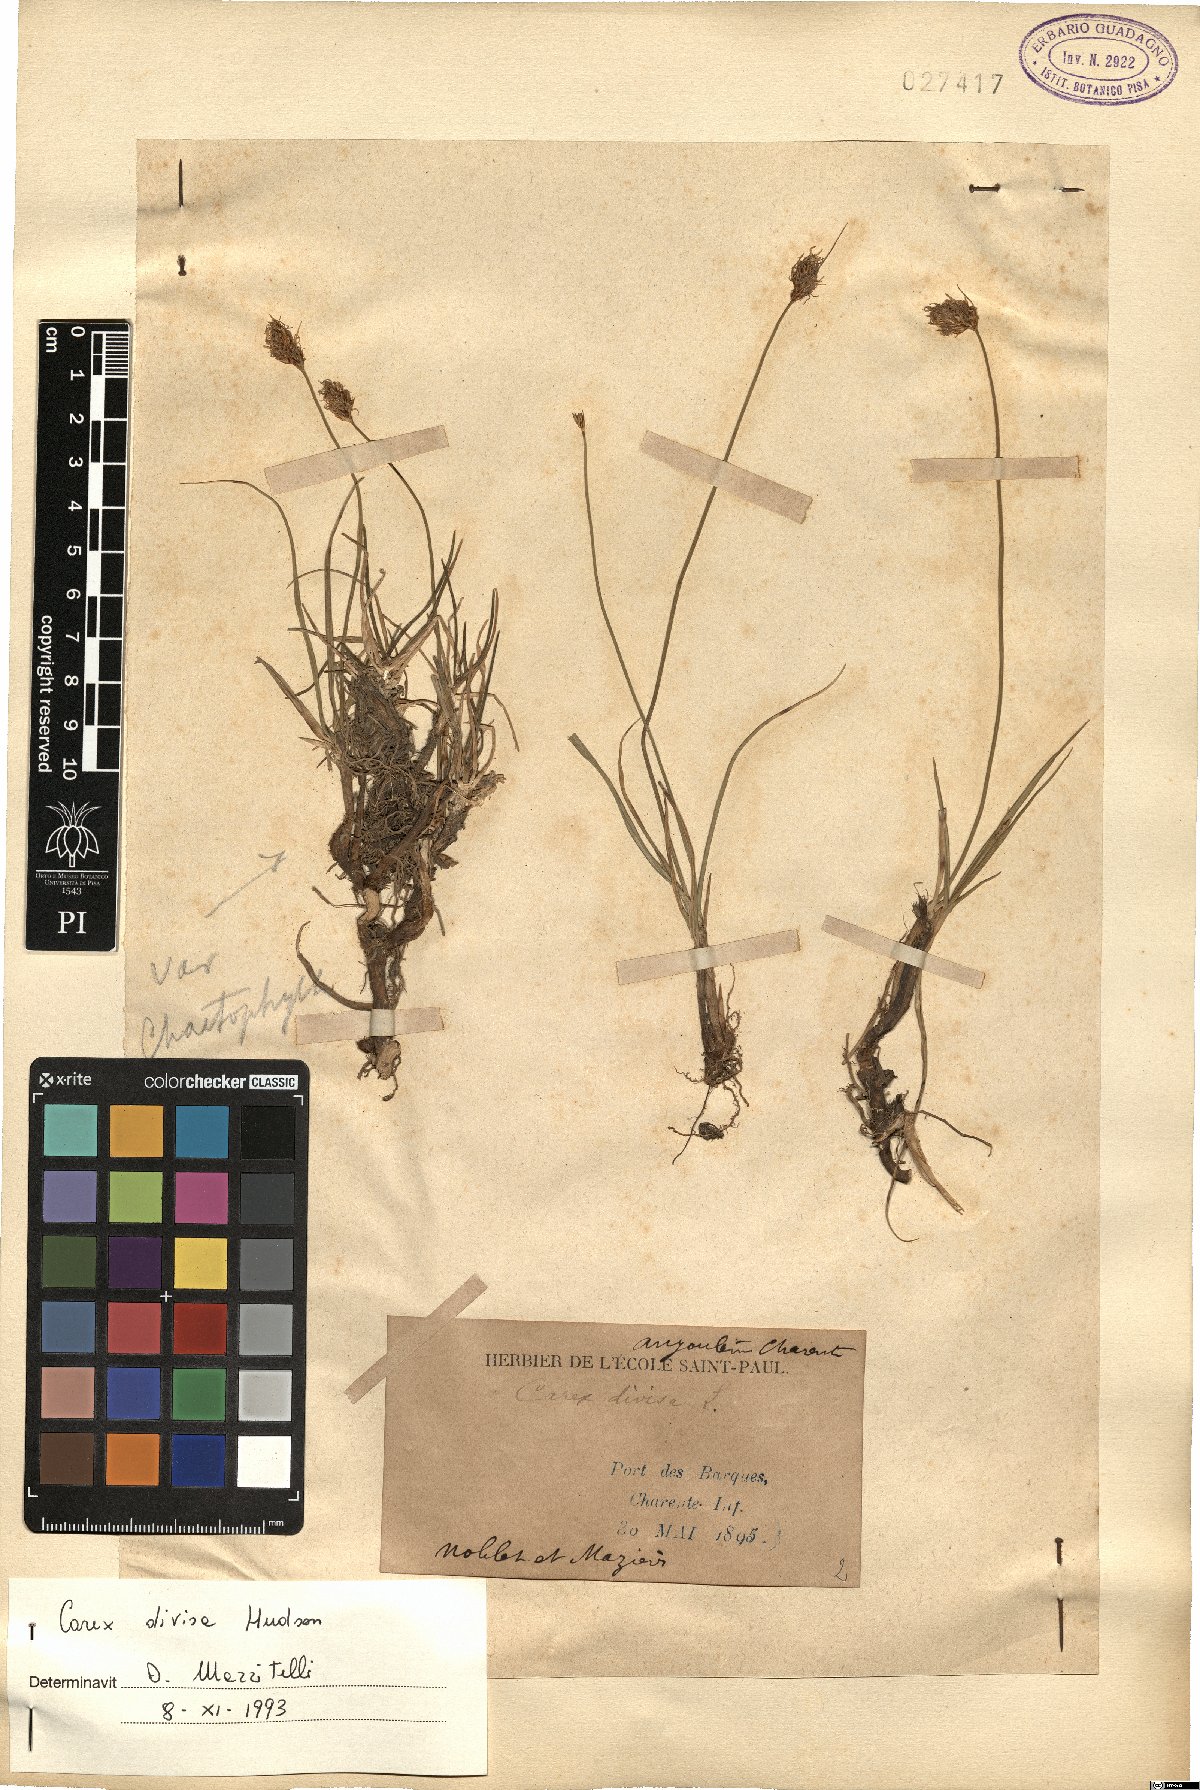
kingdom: Plantae
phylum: Tracheophyta
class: Liliopsida
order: Poales
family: Cyperaceae
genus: Carex
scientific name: Carex divisa
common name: Divided sedge
